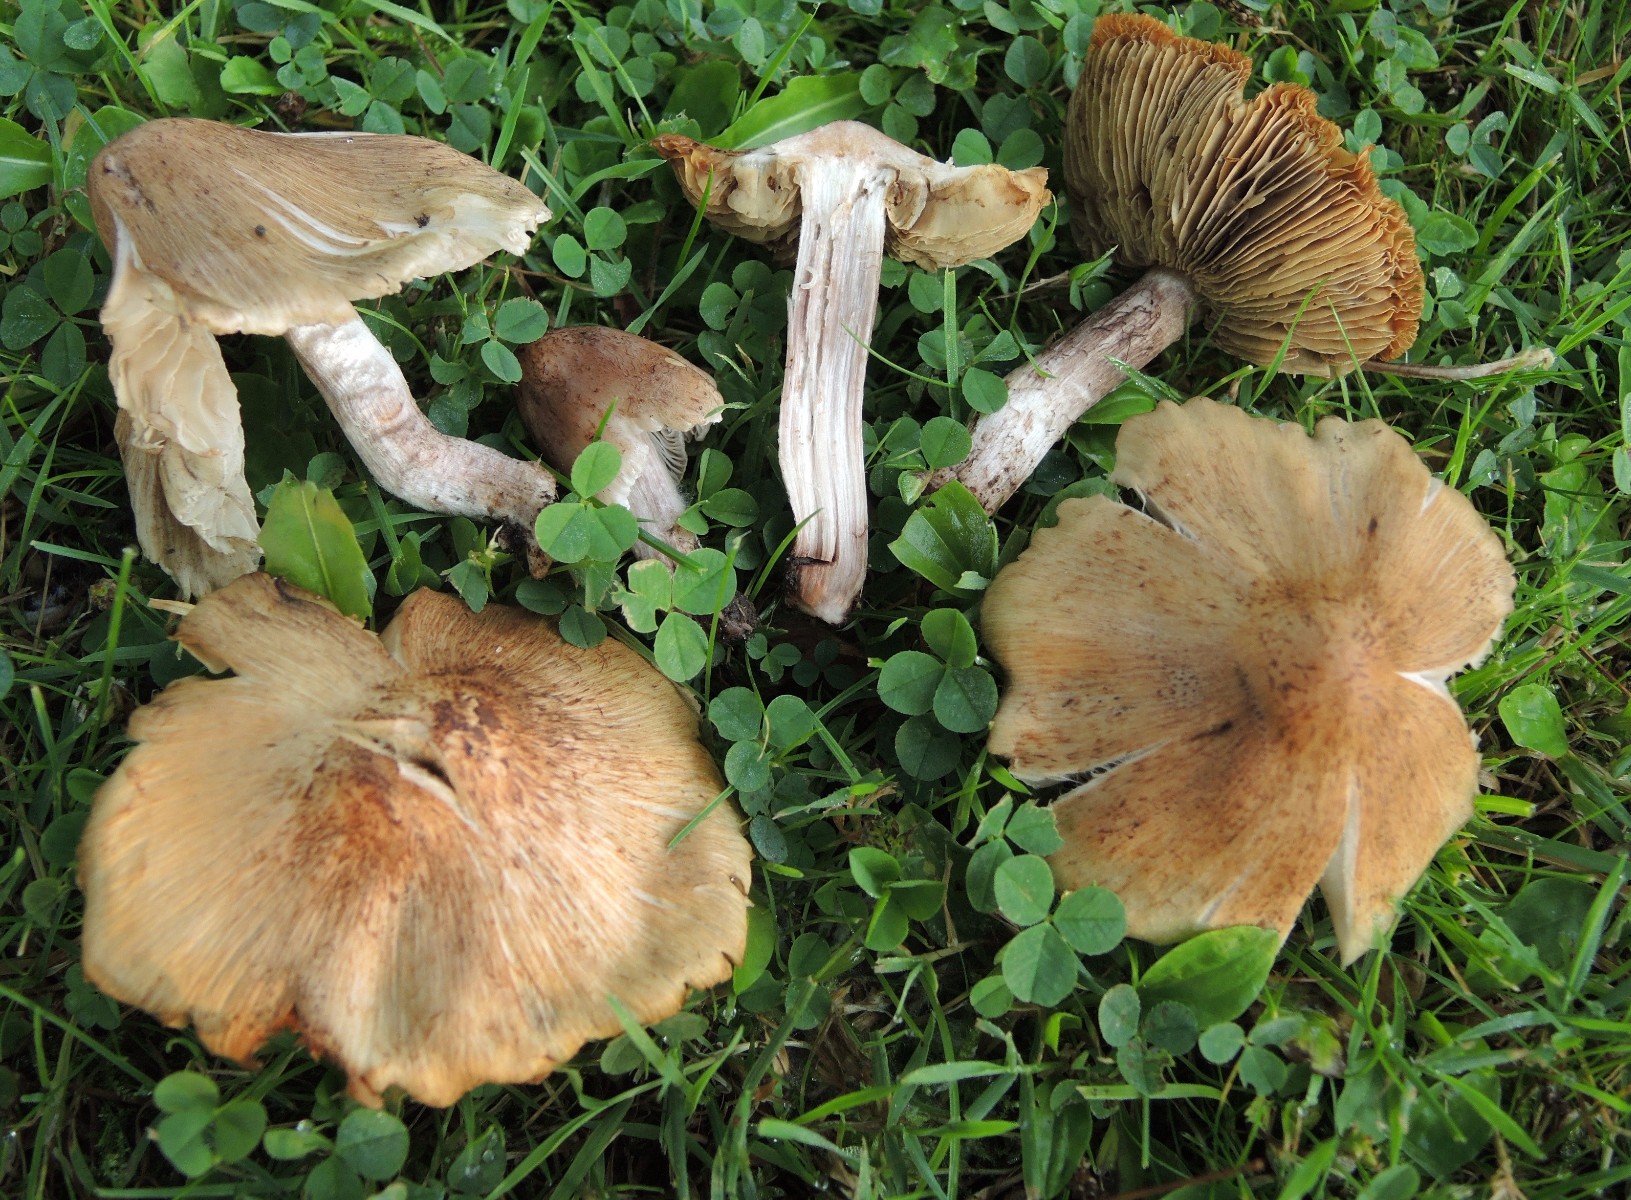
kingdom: Fungi
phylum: Basidiomycota
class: Agaricomycetes
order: Agaricales
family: Inocybaceae
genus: Inosperma
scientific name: Inosperma adaequatum
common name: vinrød trævlhat
